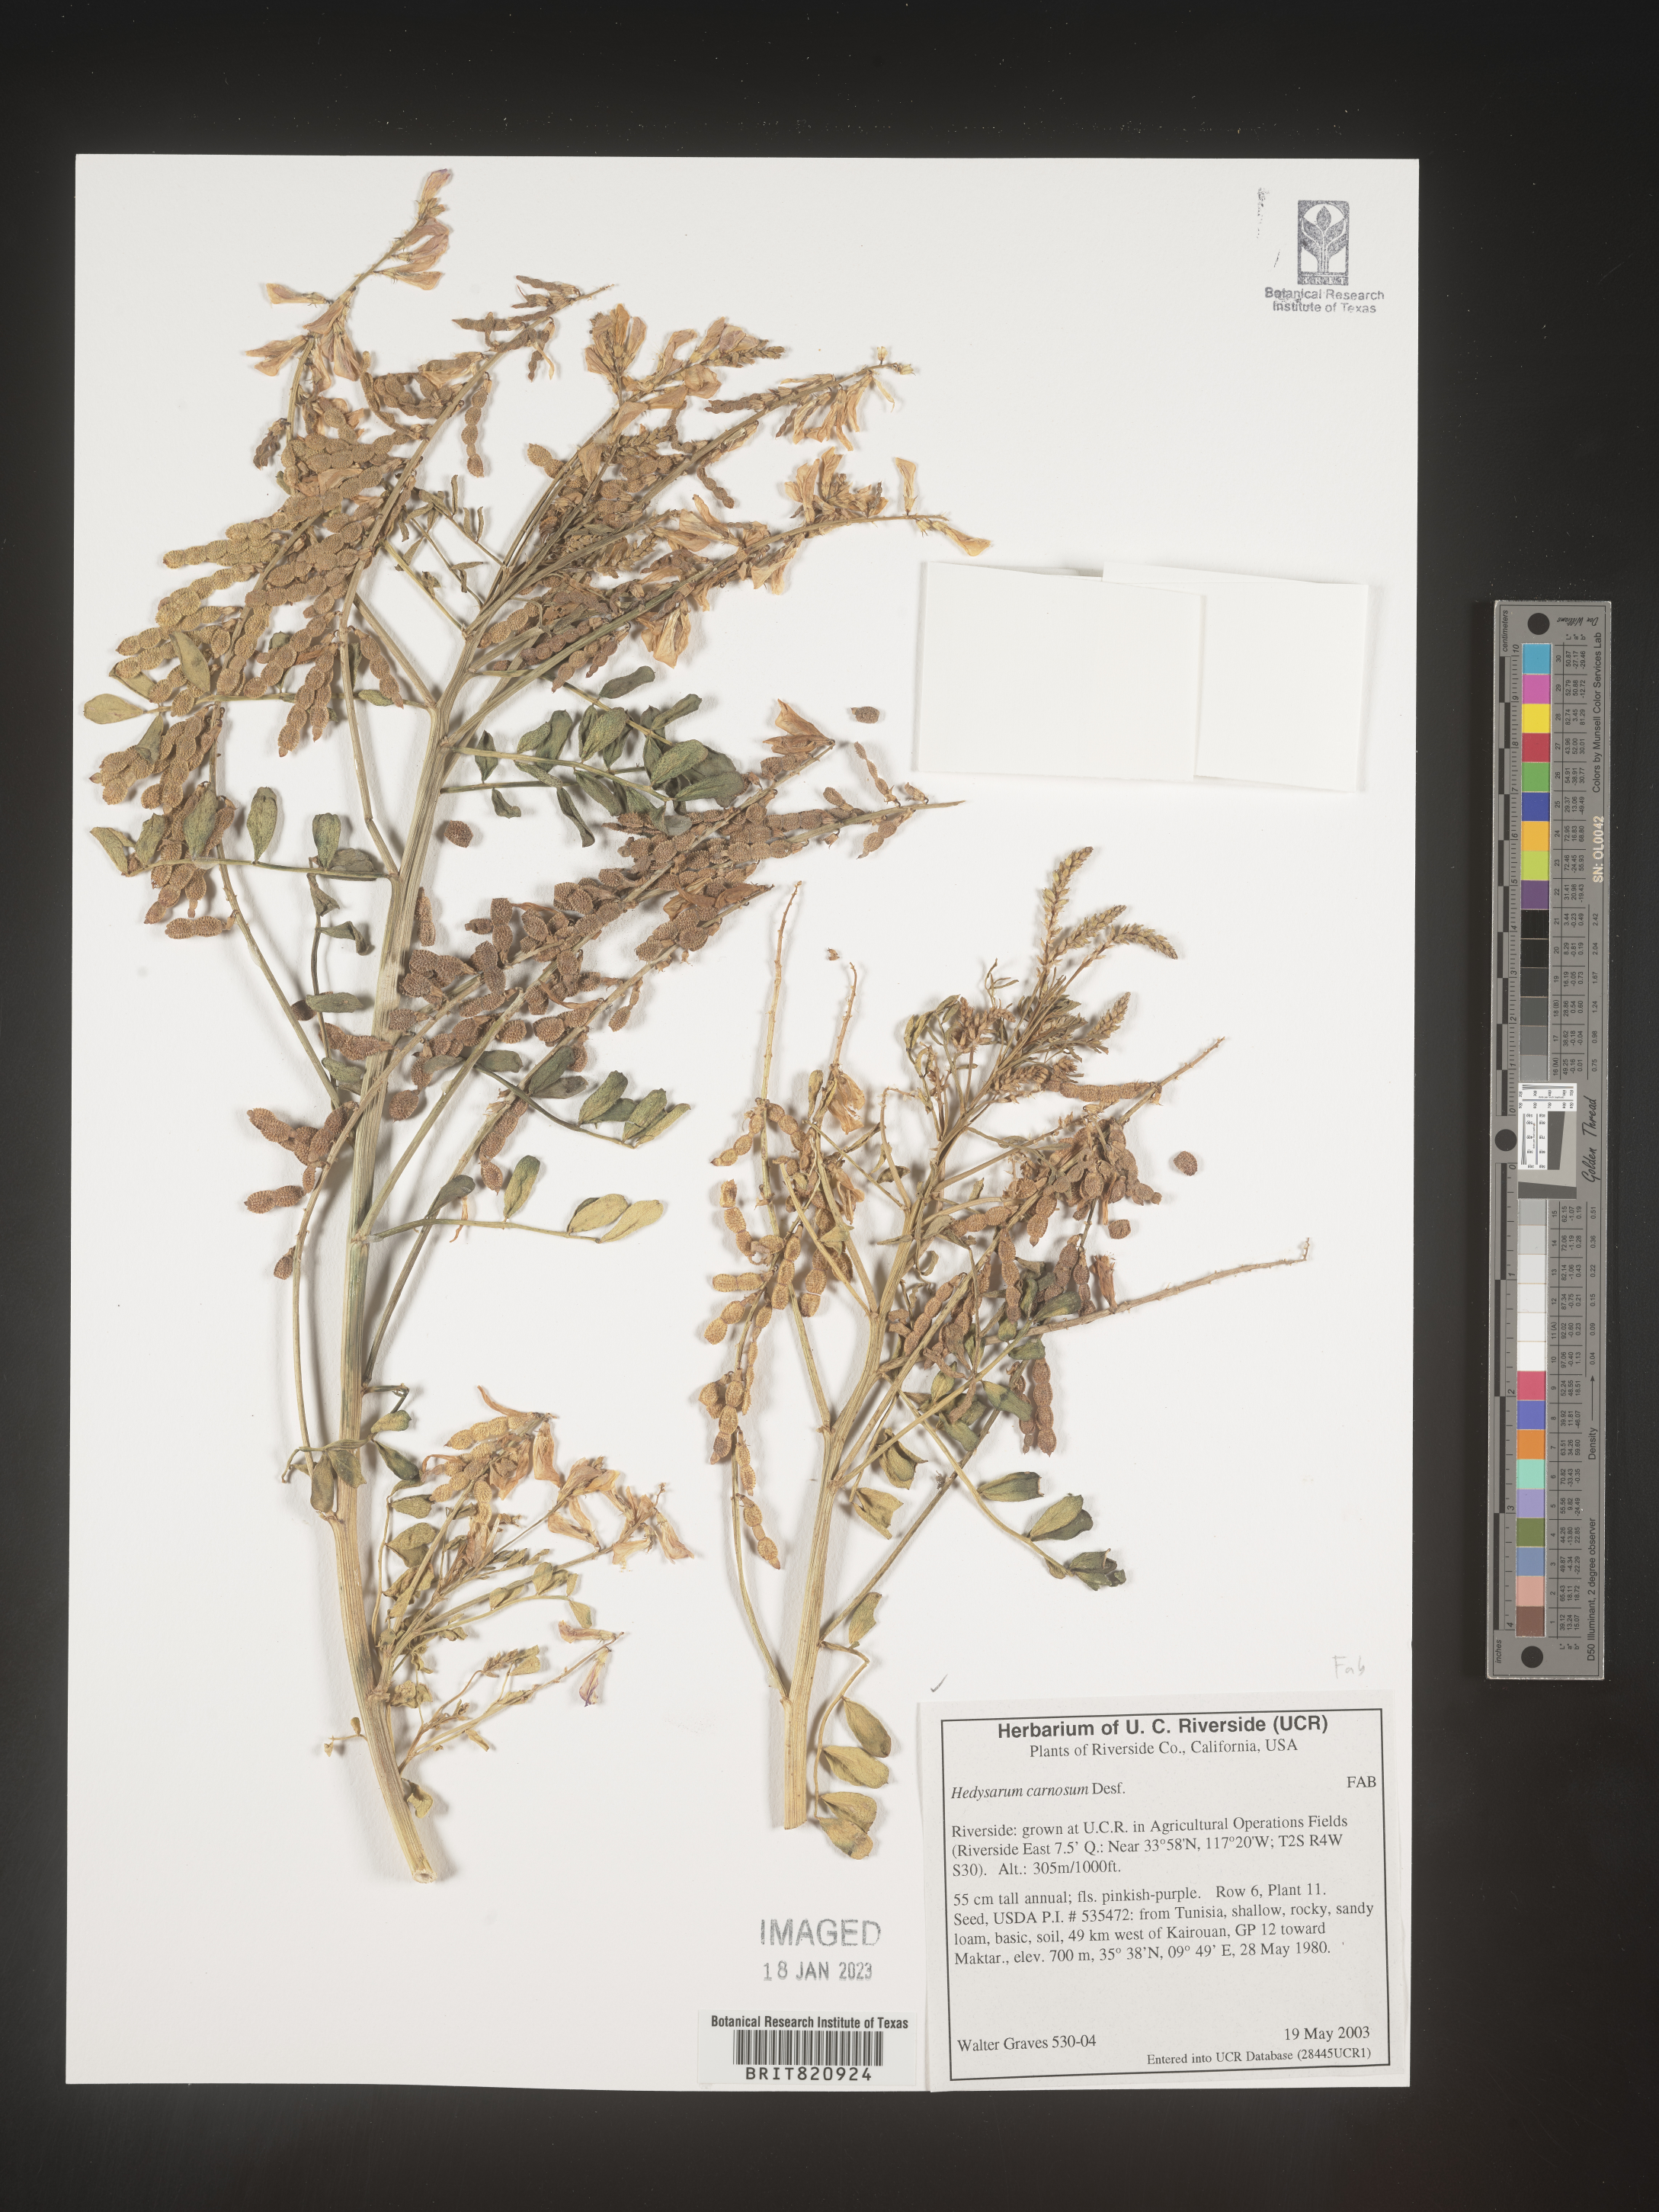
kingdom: Plantae
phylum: Tracheophyta
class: Magnoliopsida
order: Fabales
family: Fabaceae
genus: Hedysarum
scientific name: Hedysarum
